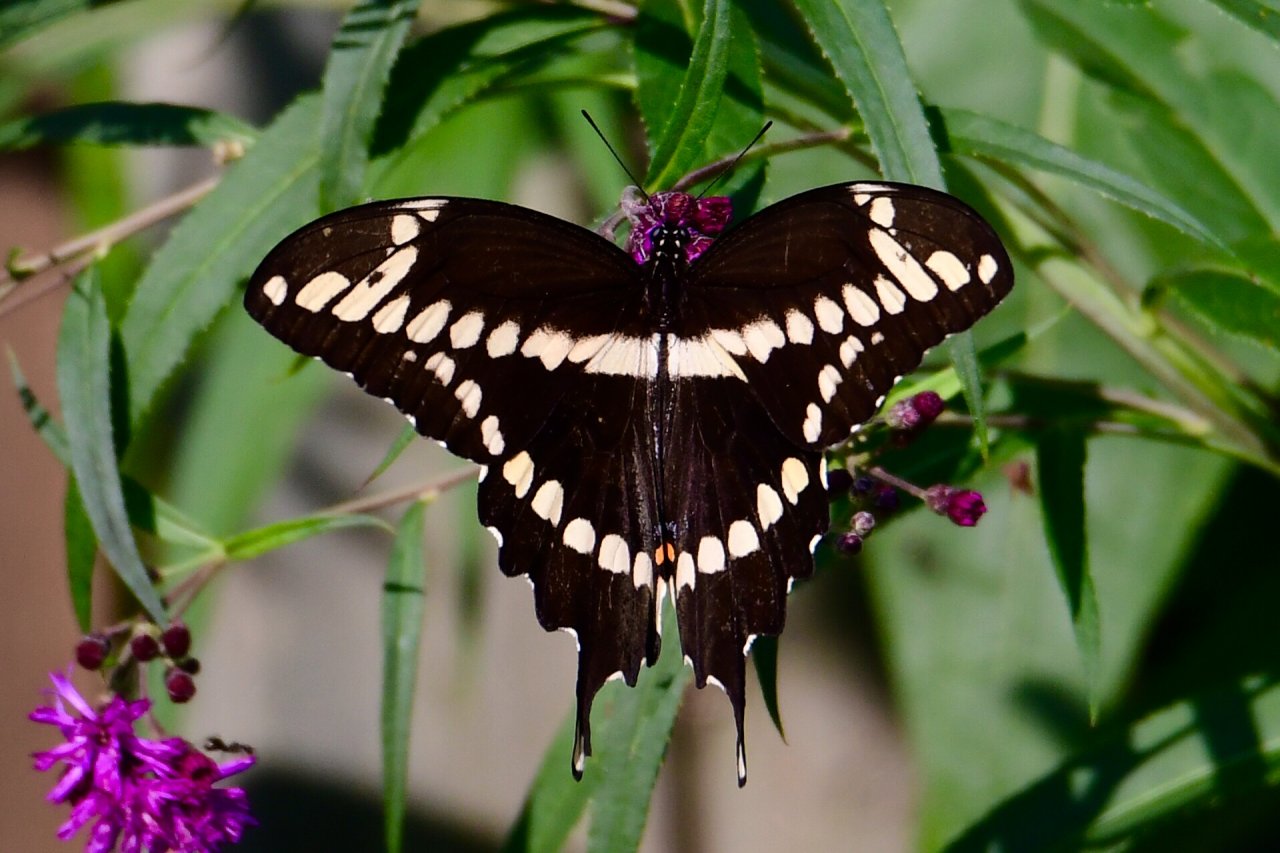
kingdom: Animalia
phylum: Arthropoda
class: Insecta
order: Lepidoptera
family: Papilionidae
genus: Papilio
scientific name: Papilio cresphontes
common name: Eastern Giant Swallowtail
